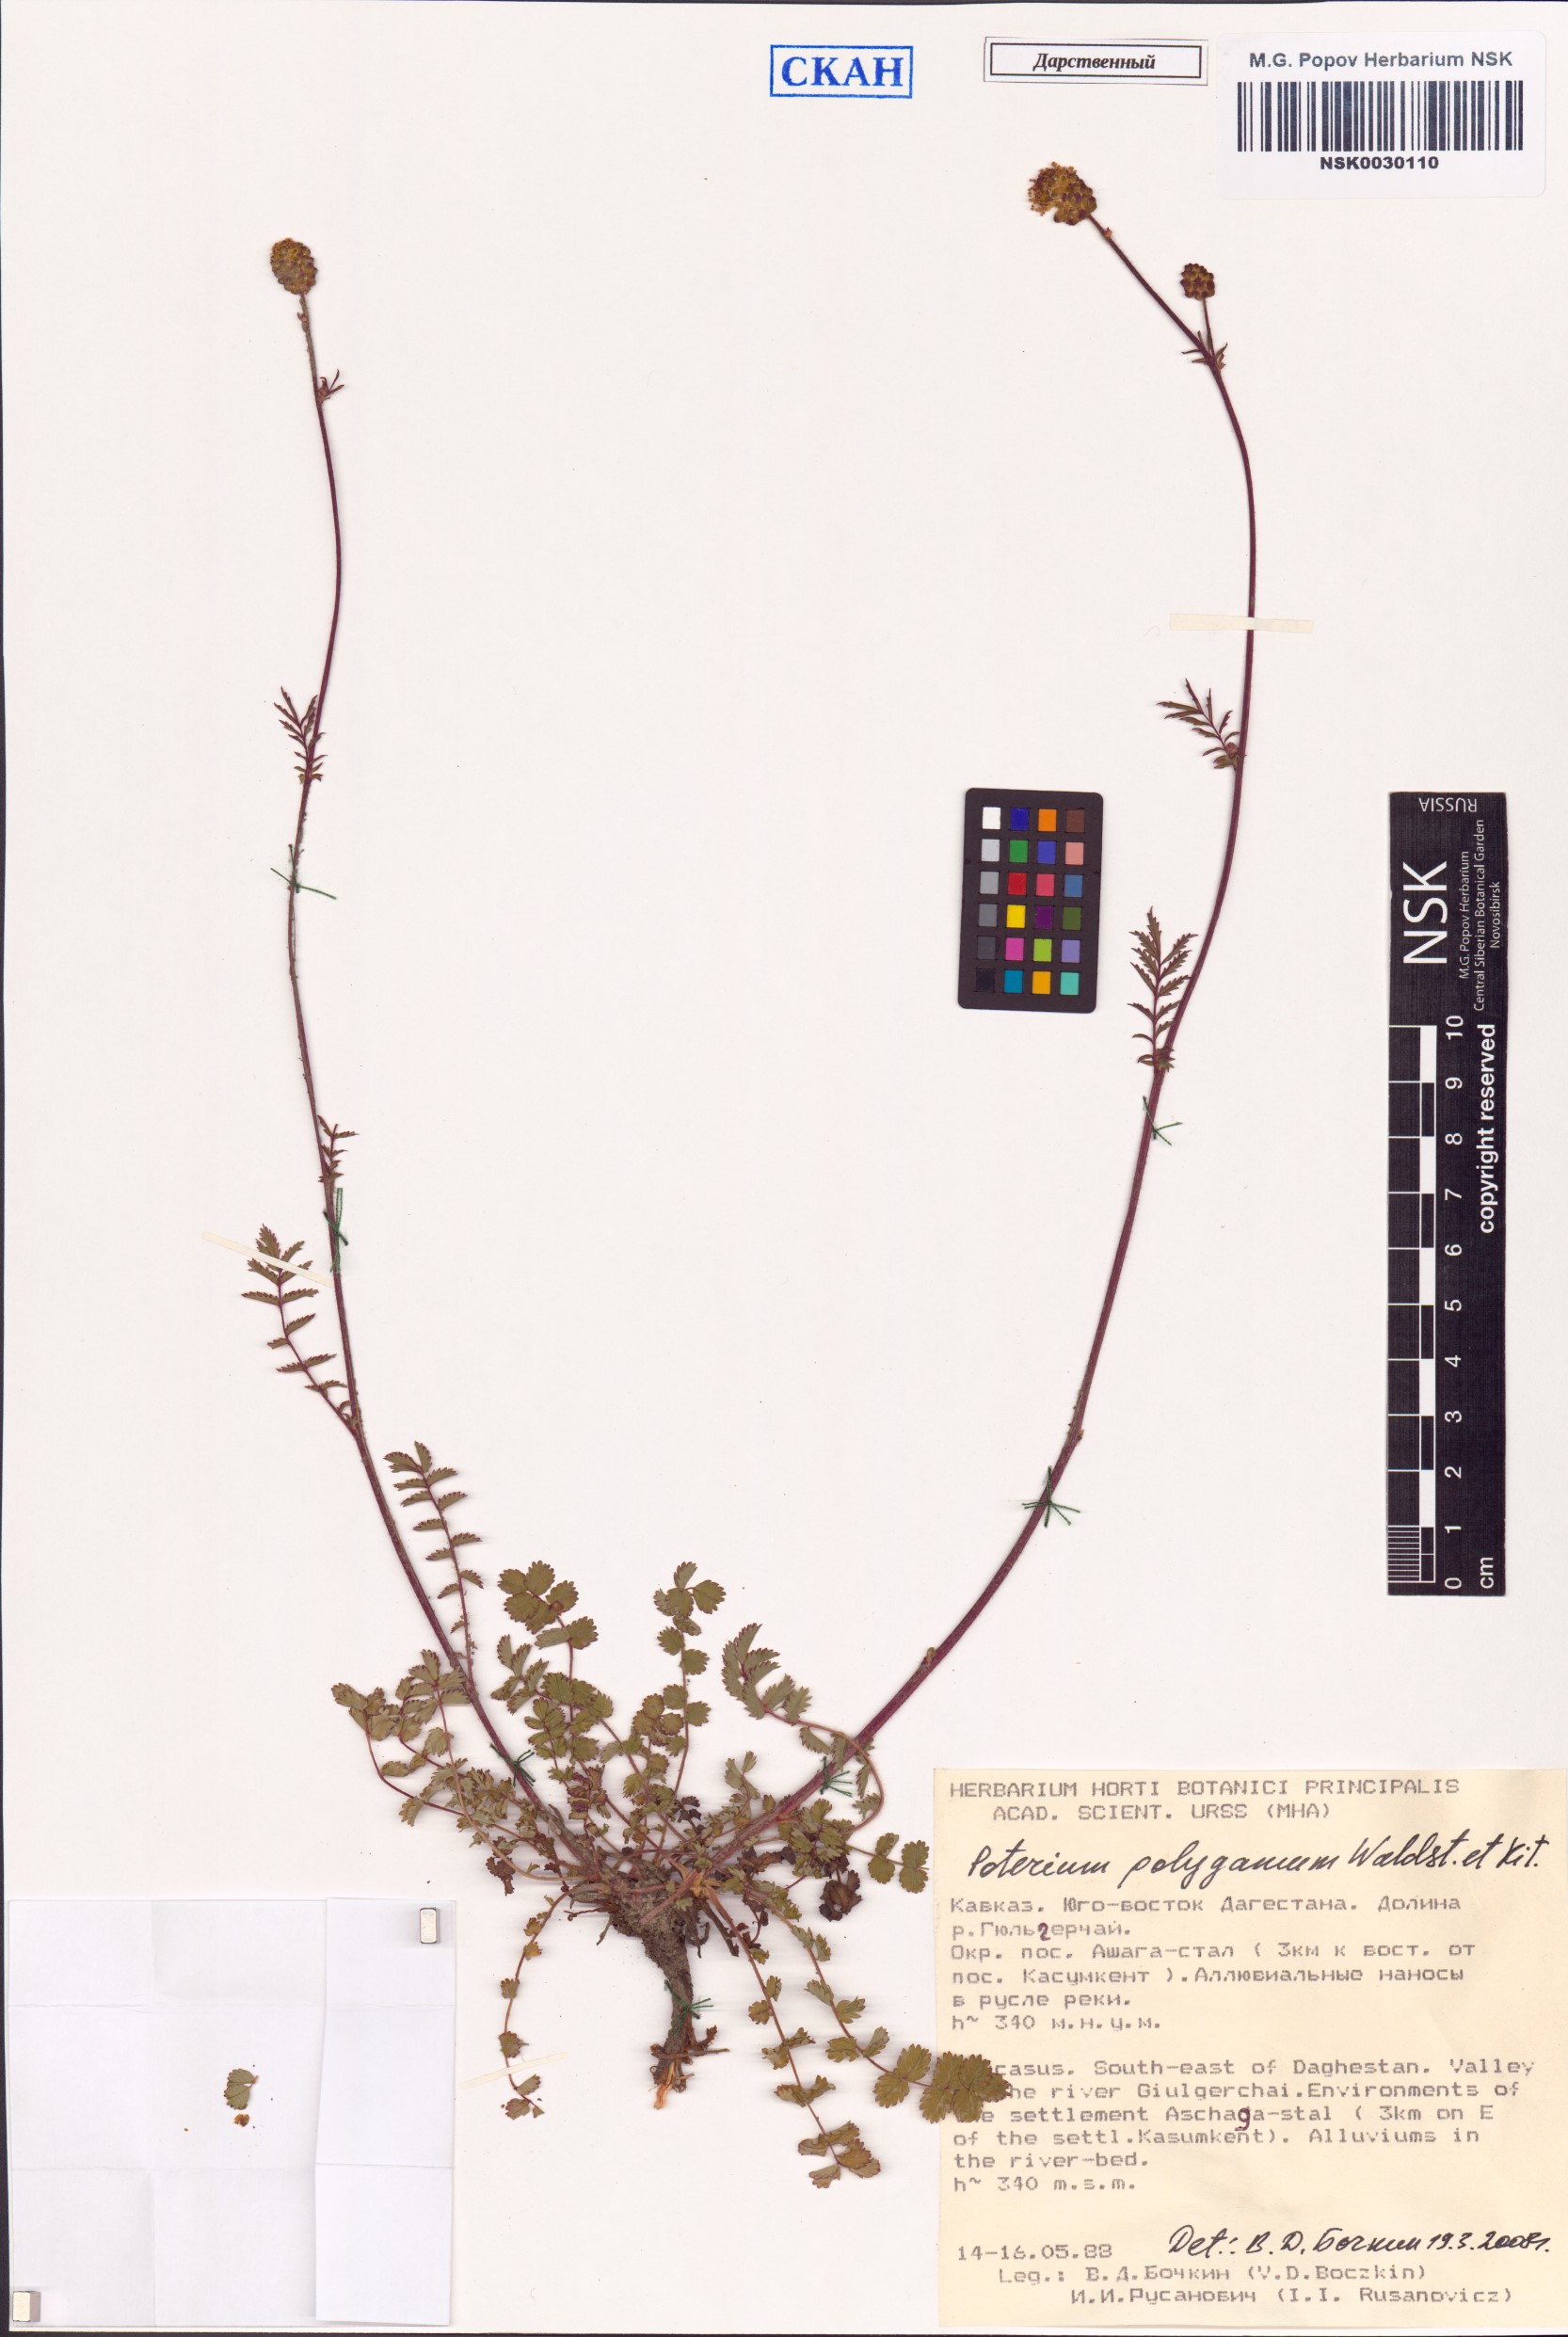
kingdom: Plantae
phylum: Tracheophyta
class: Magnoliopsida
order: Rosales
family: Rosaceae
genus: Poterium
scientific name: Poterium sanguisorba
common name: Salad burnet
